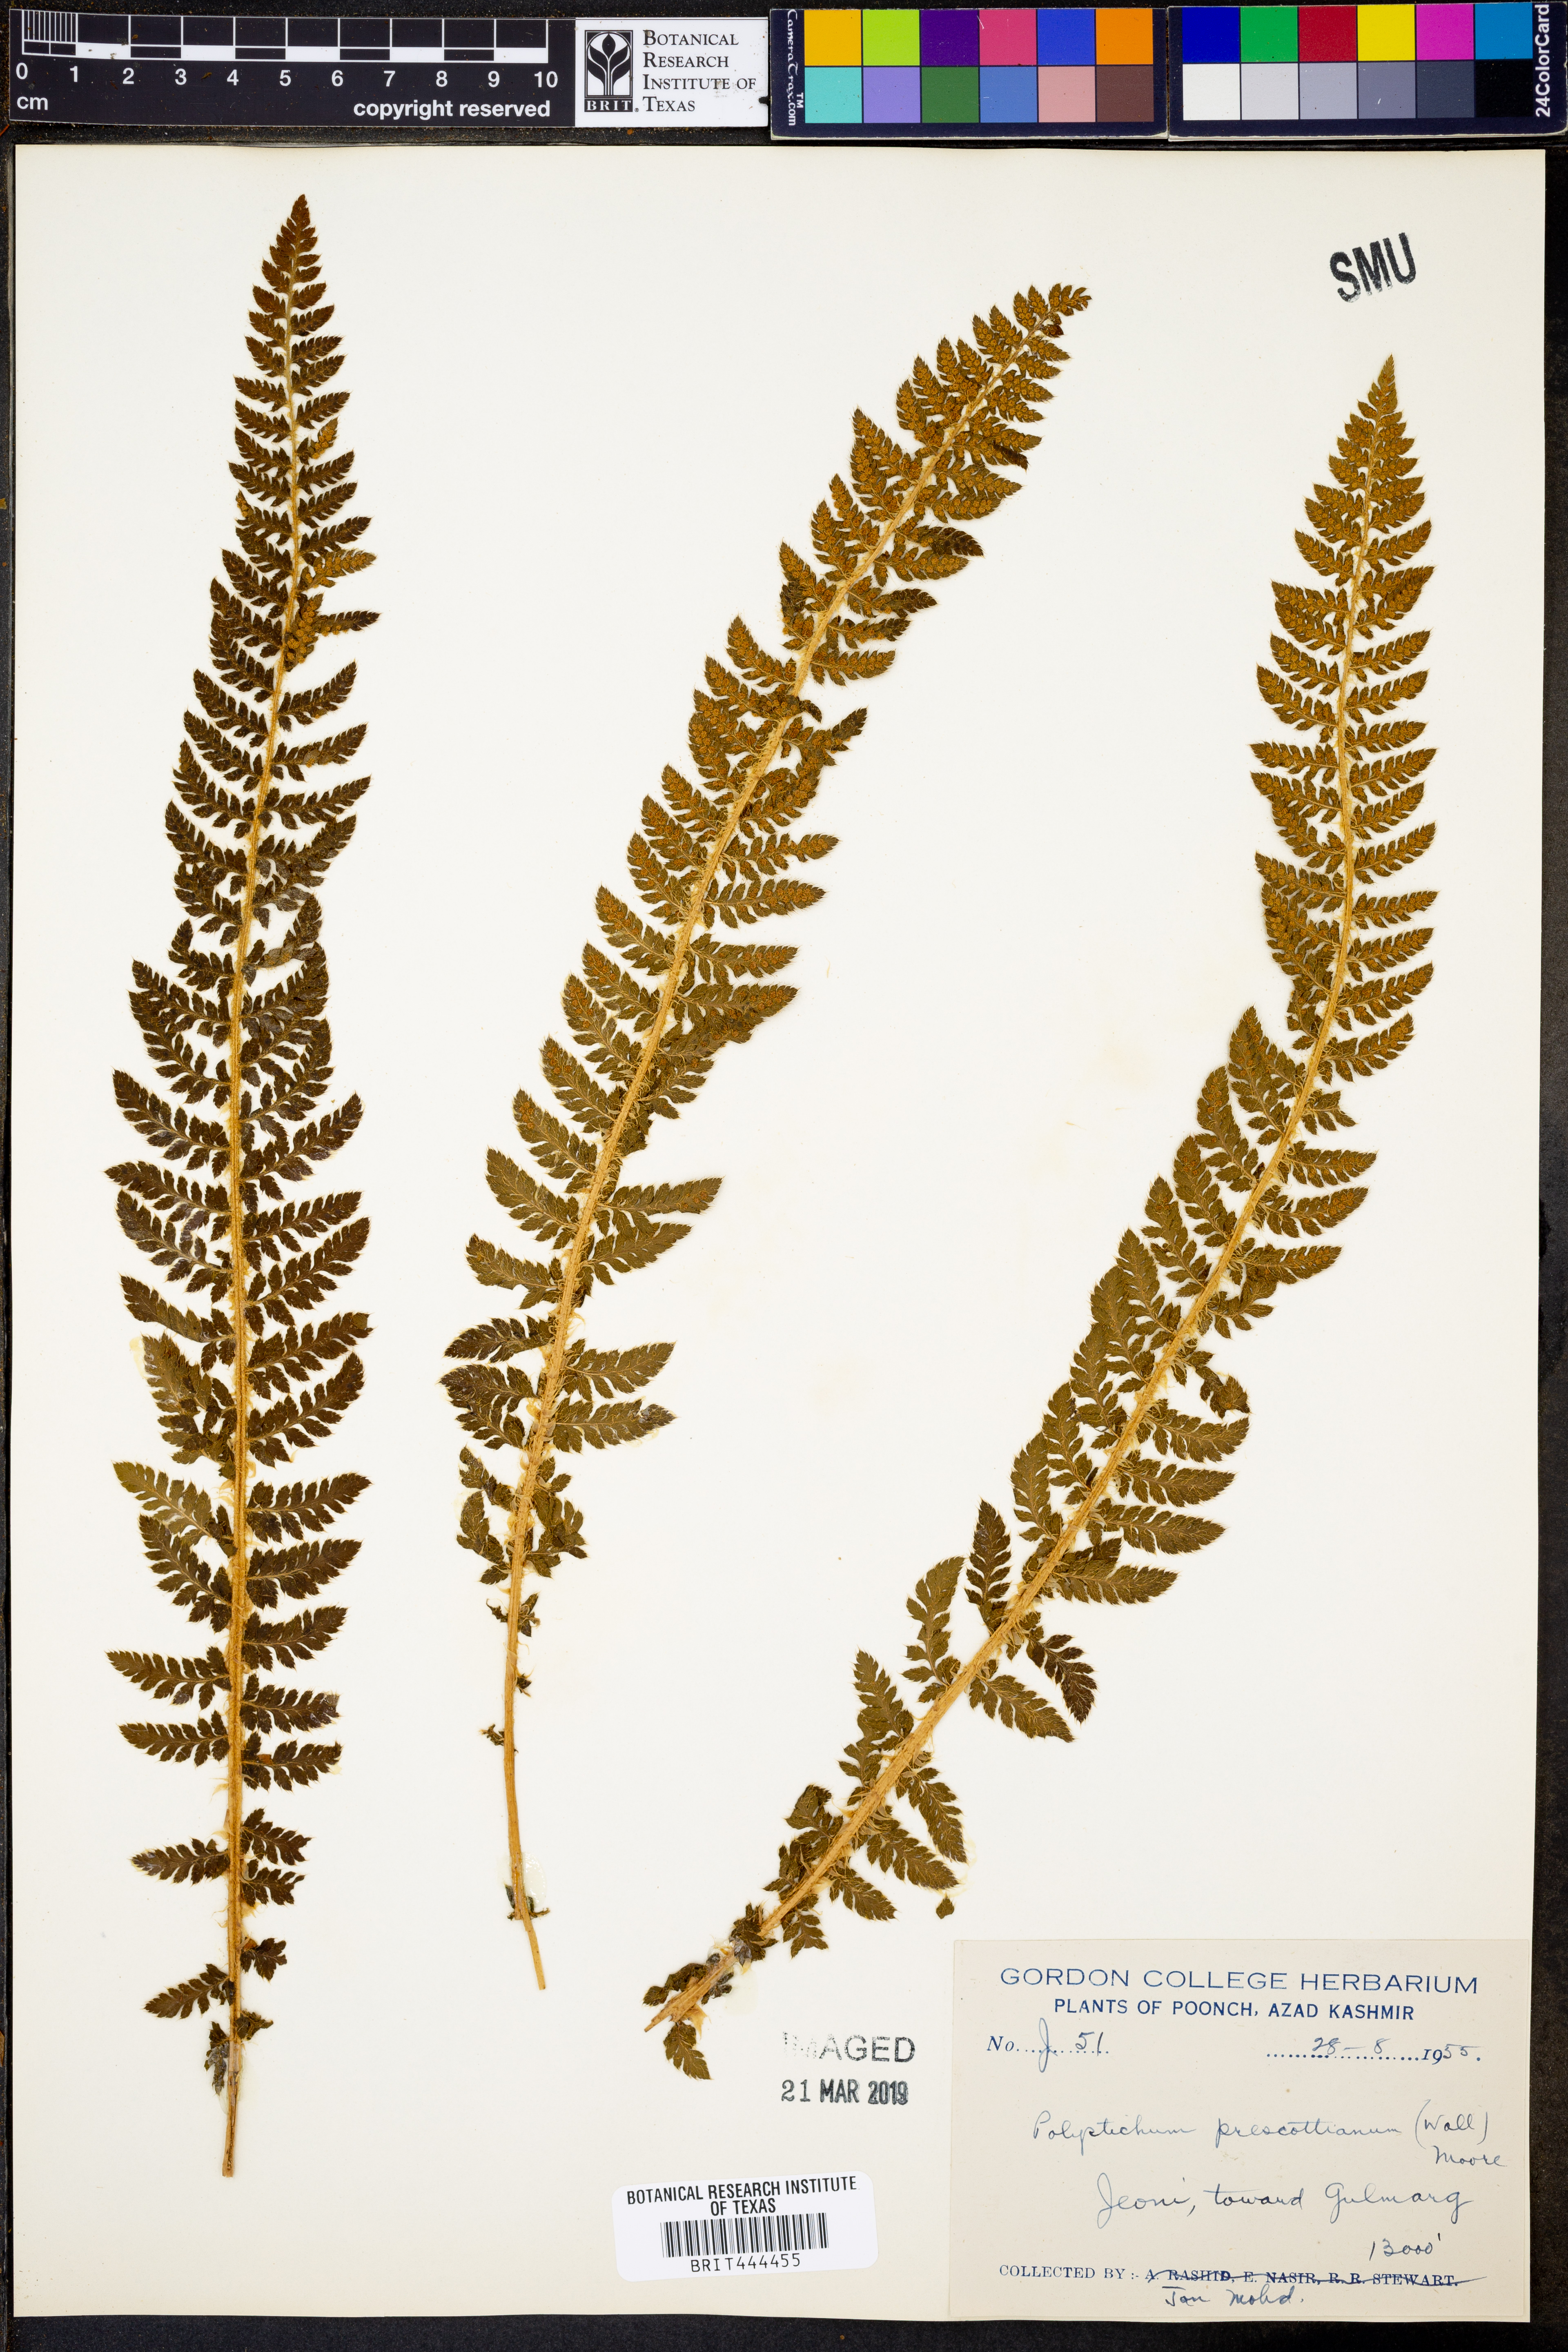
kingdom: Plantae
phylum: Tracheophyta
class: Polypodiopsida
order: Polypodiales
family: Dryopteridaceae
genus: Polystichum
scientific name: Polystichum prescottianum
